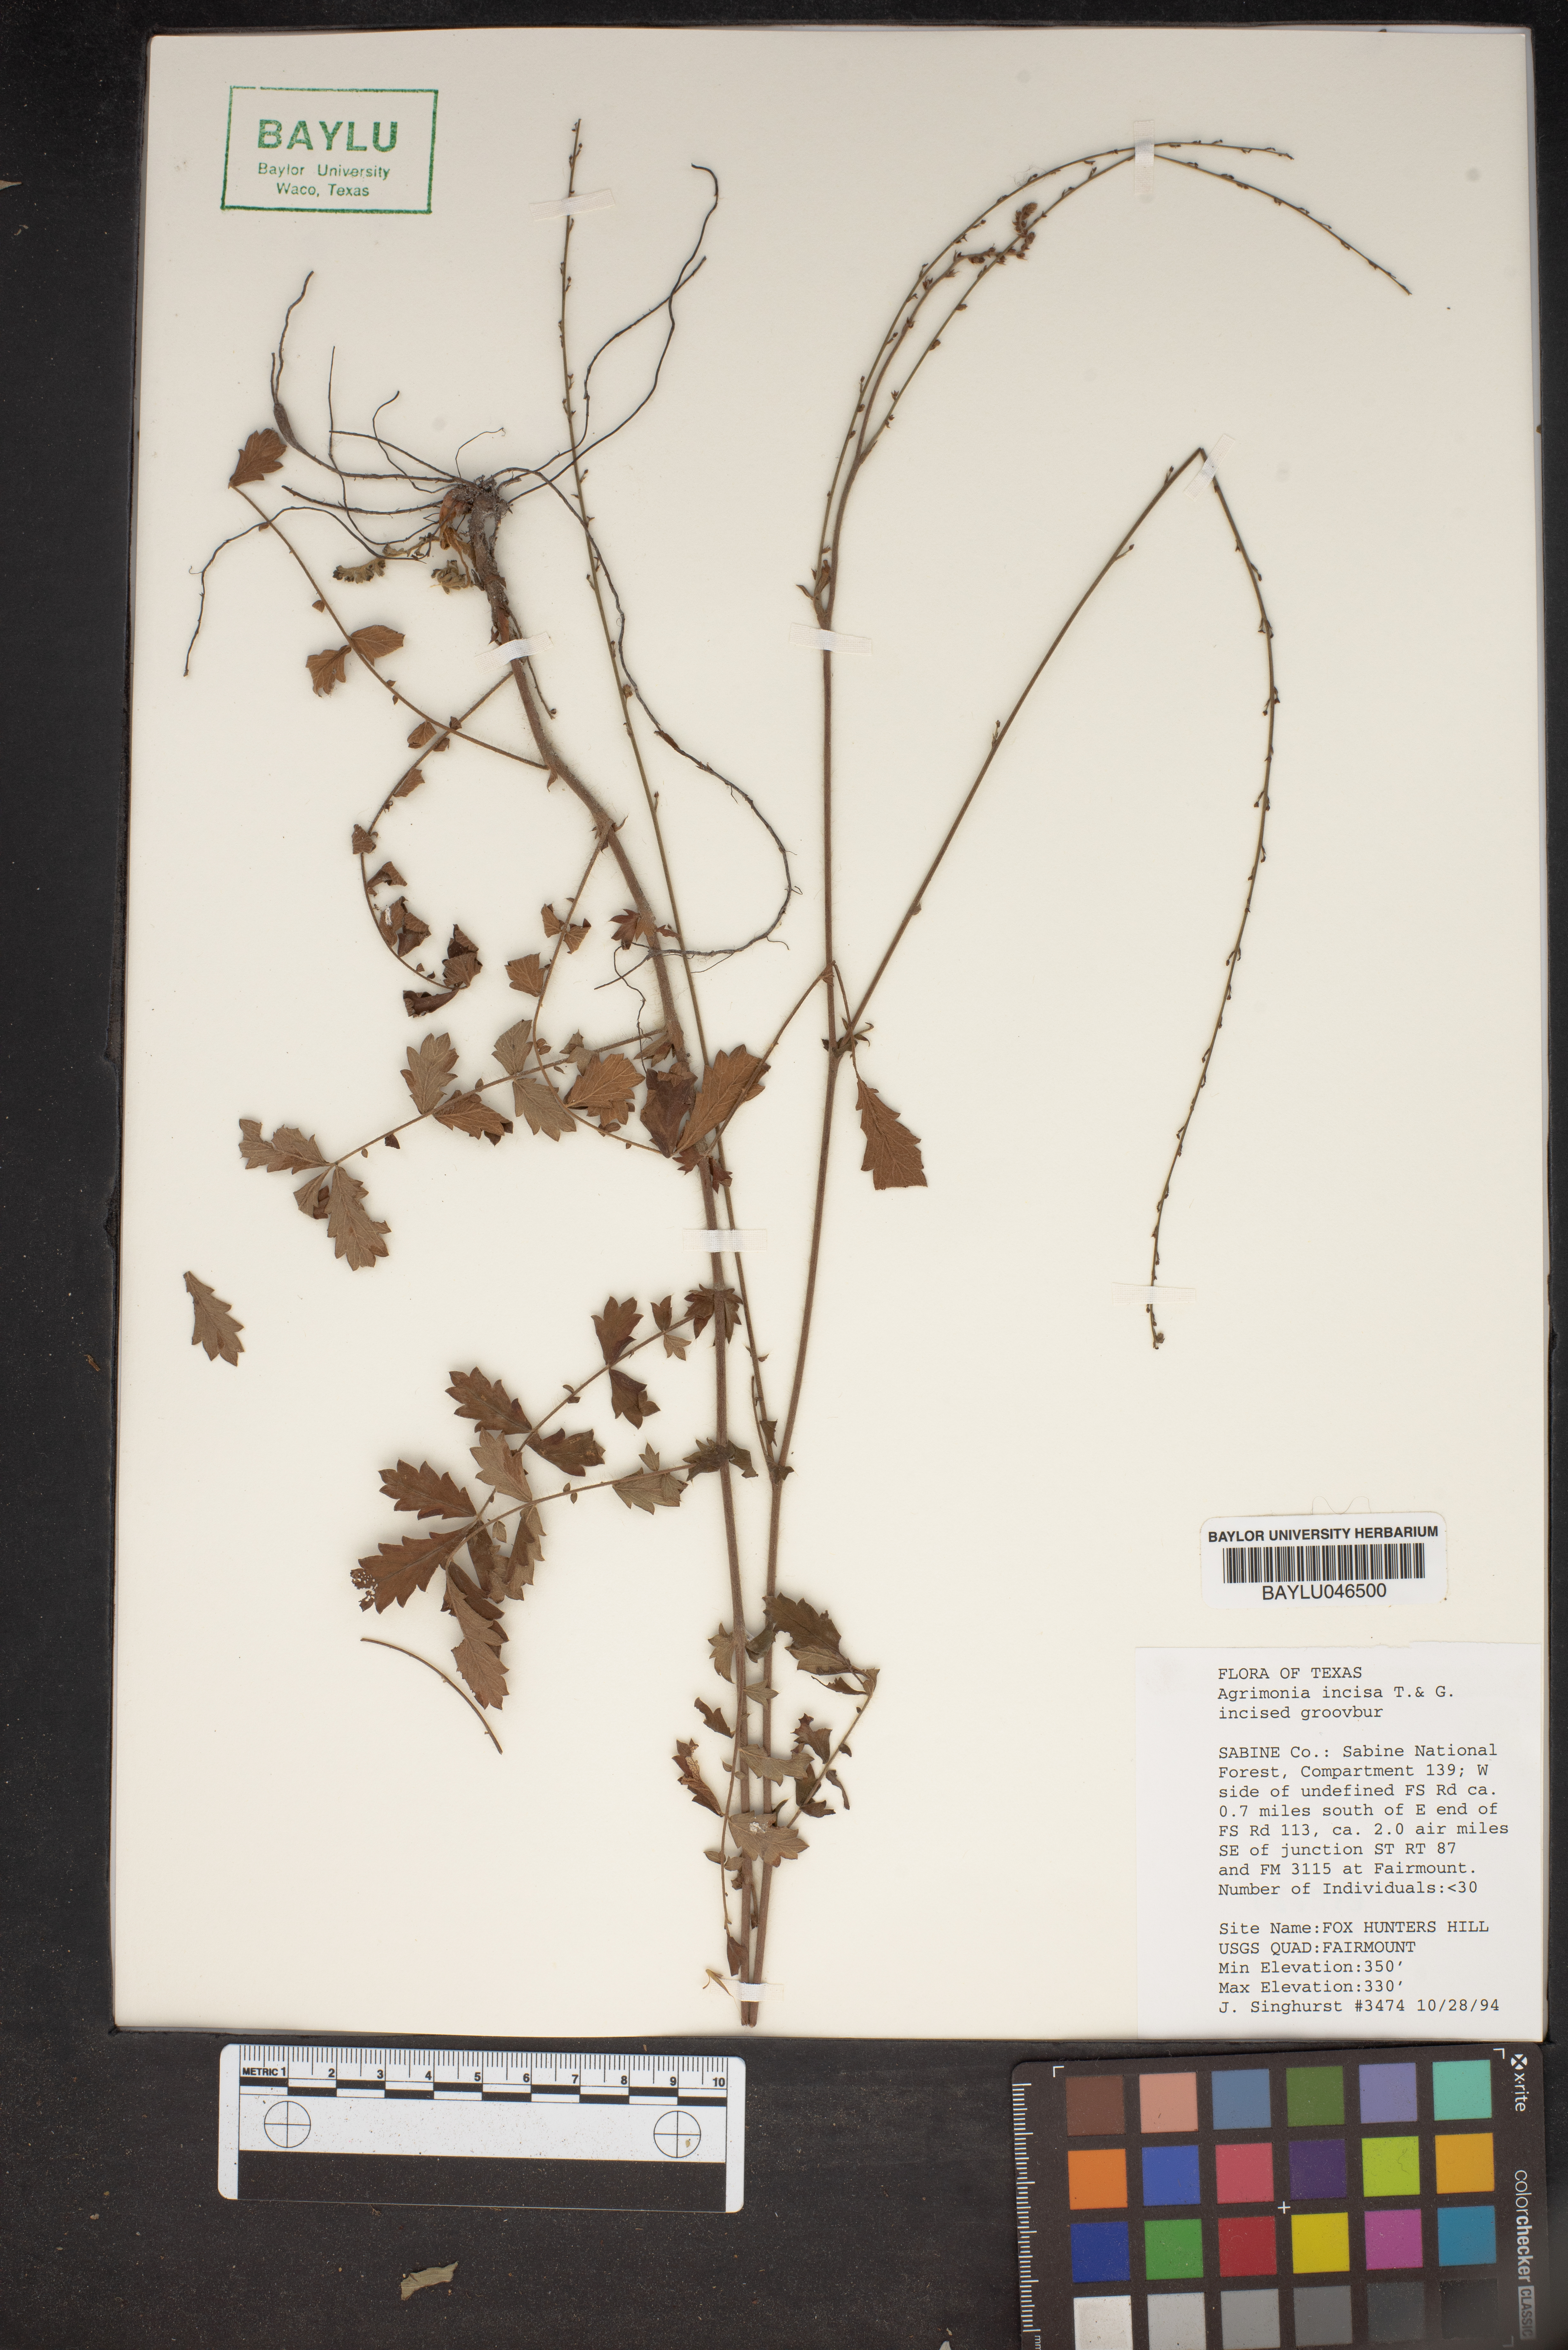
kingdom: Plantae
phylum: Tracheophyta
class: Magnoliopsida
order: Rosales
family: Rosaceae
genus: Agrimonia
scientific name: Agrimonia incisa
